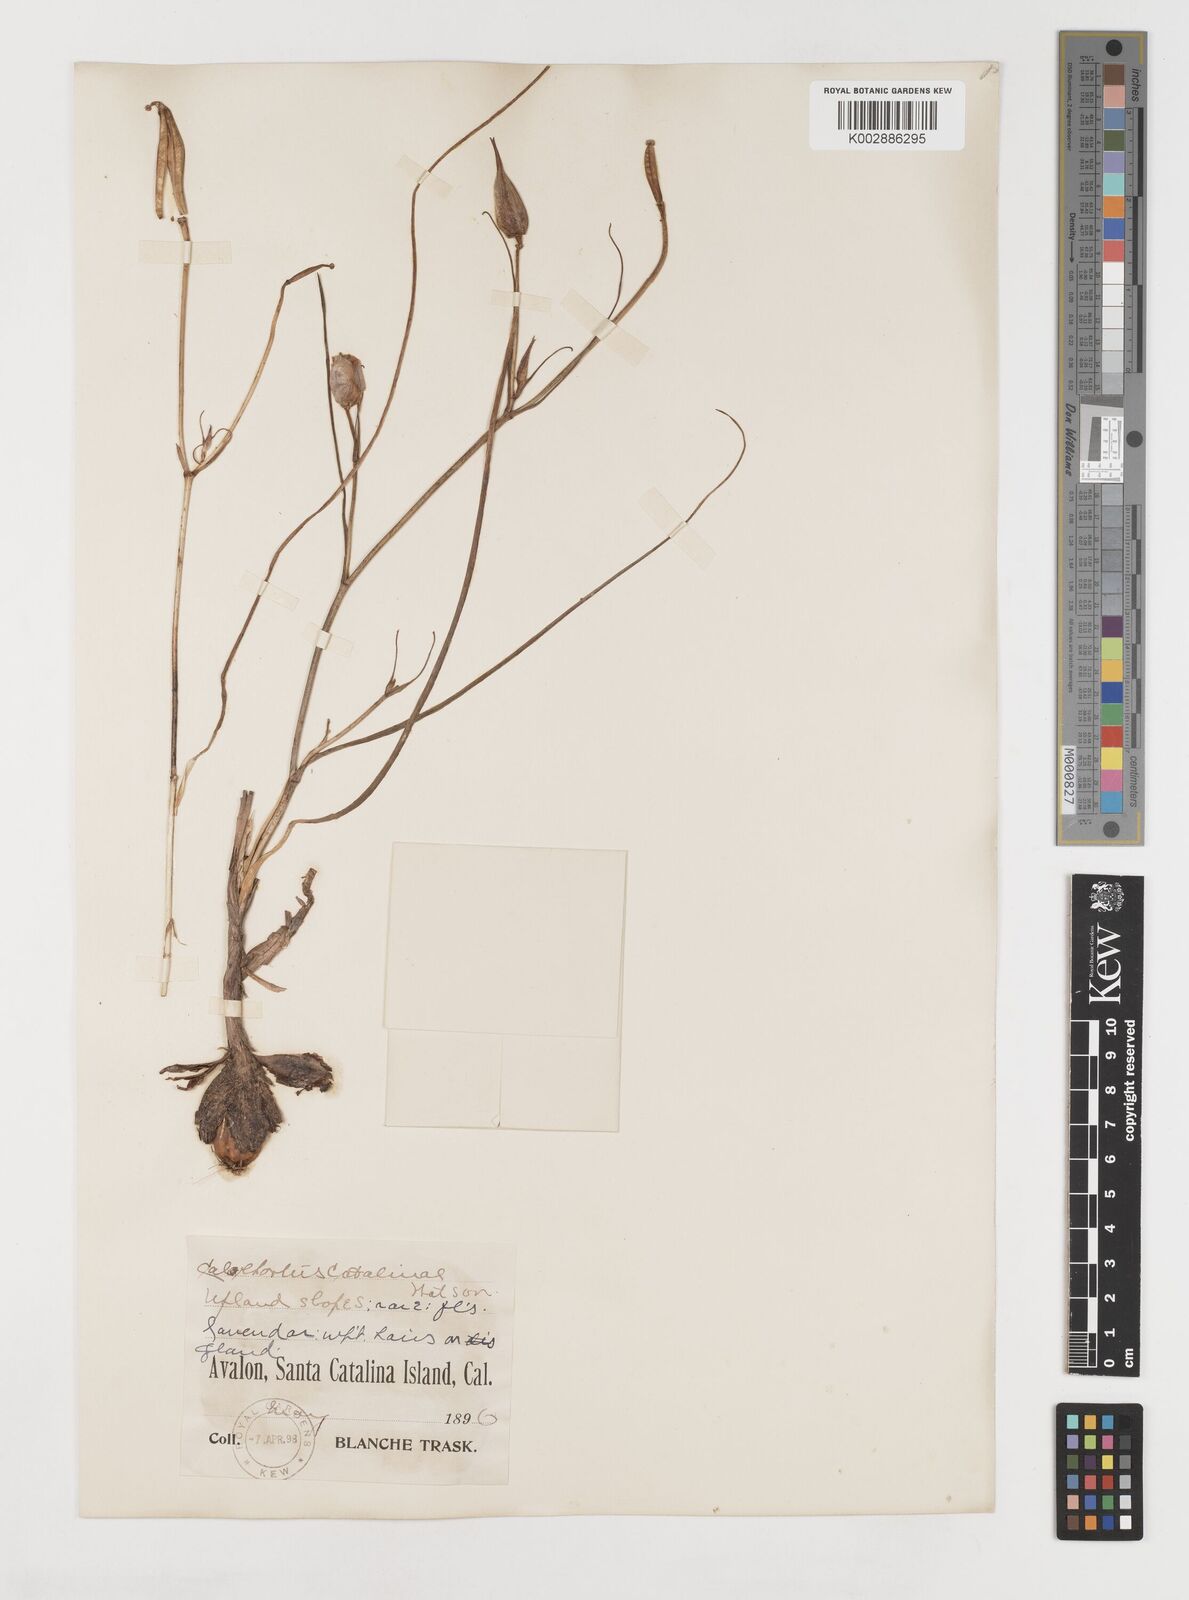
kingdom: Plantae
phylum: Tracheophyta
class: Liliopsida
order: Liliales
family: Liliaceae
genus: Calochortus
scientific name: Calochortus catalinae
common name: Catalina mariposa-lily
